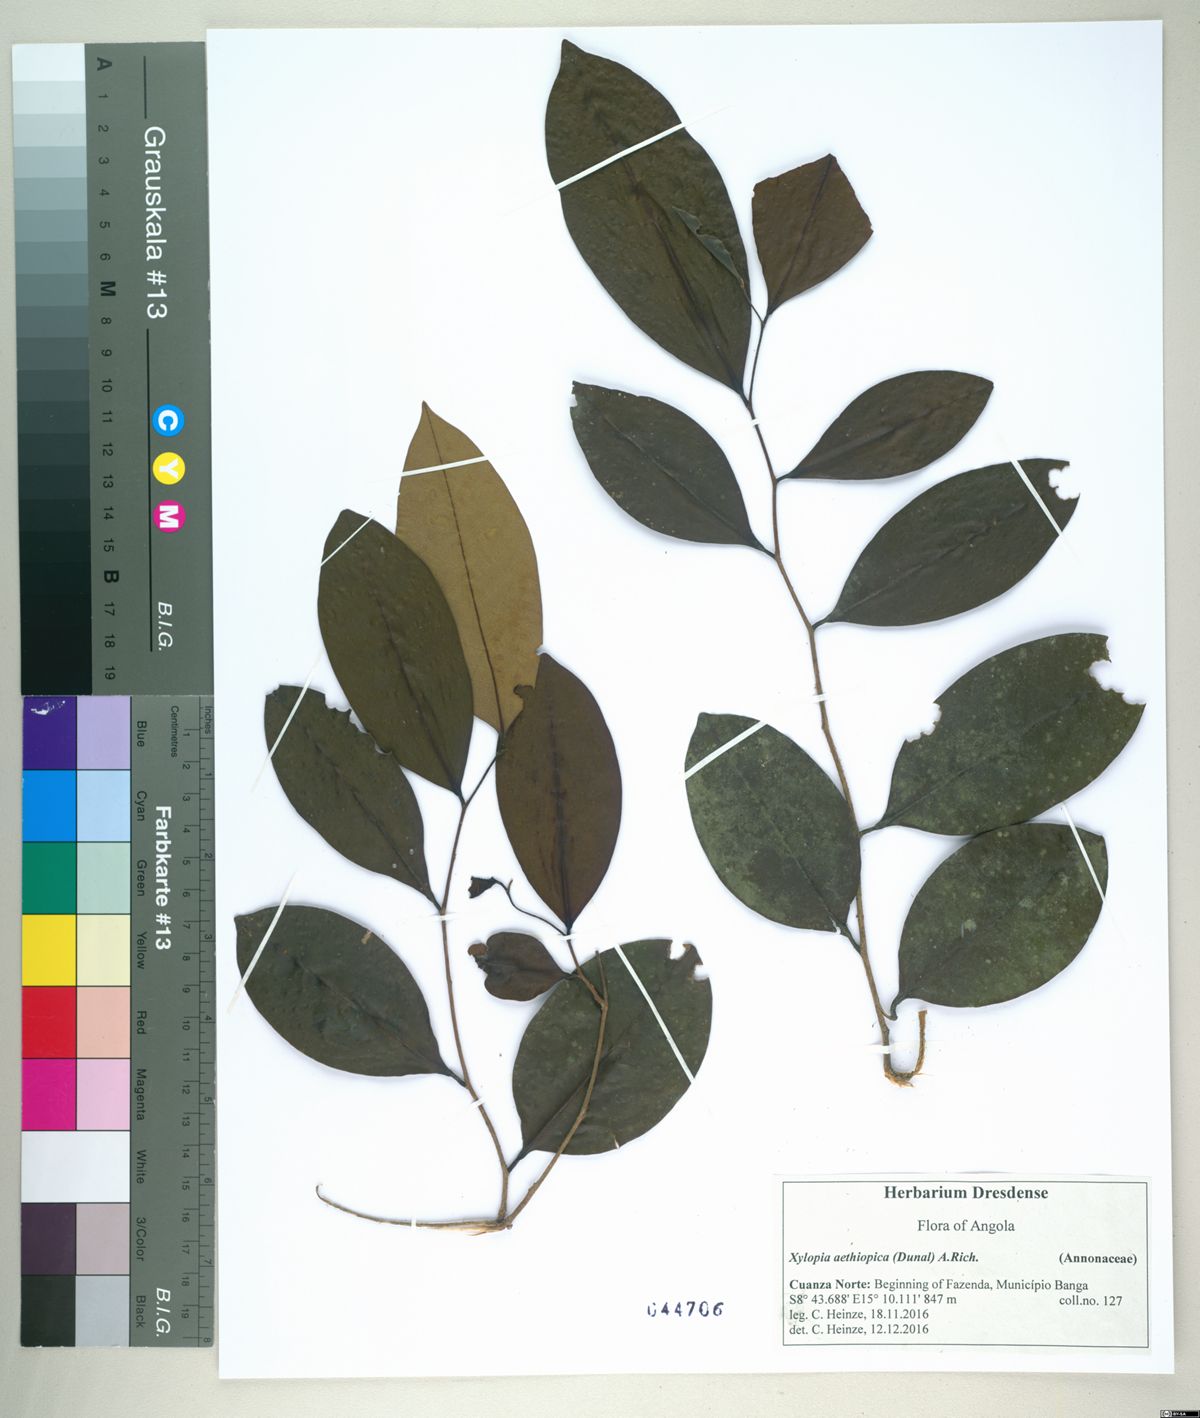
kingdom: Plantae
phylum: Tracheophyta
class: Magnoliopsida
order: Magnoliales
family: Annonaceae
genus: Xylopia
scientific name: Xylopia aethiopica
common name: Ethiopian-pepper
